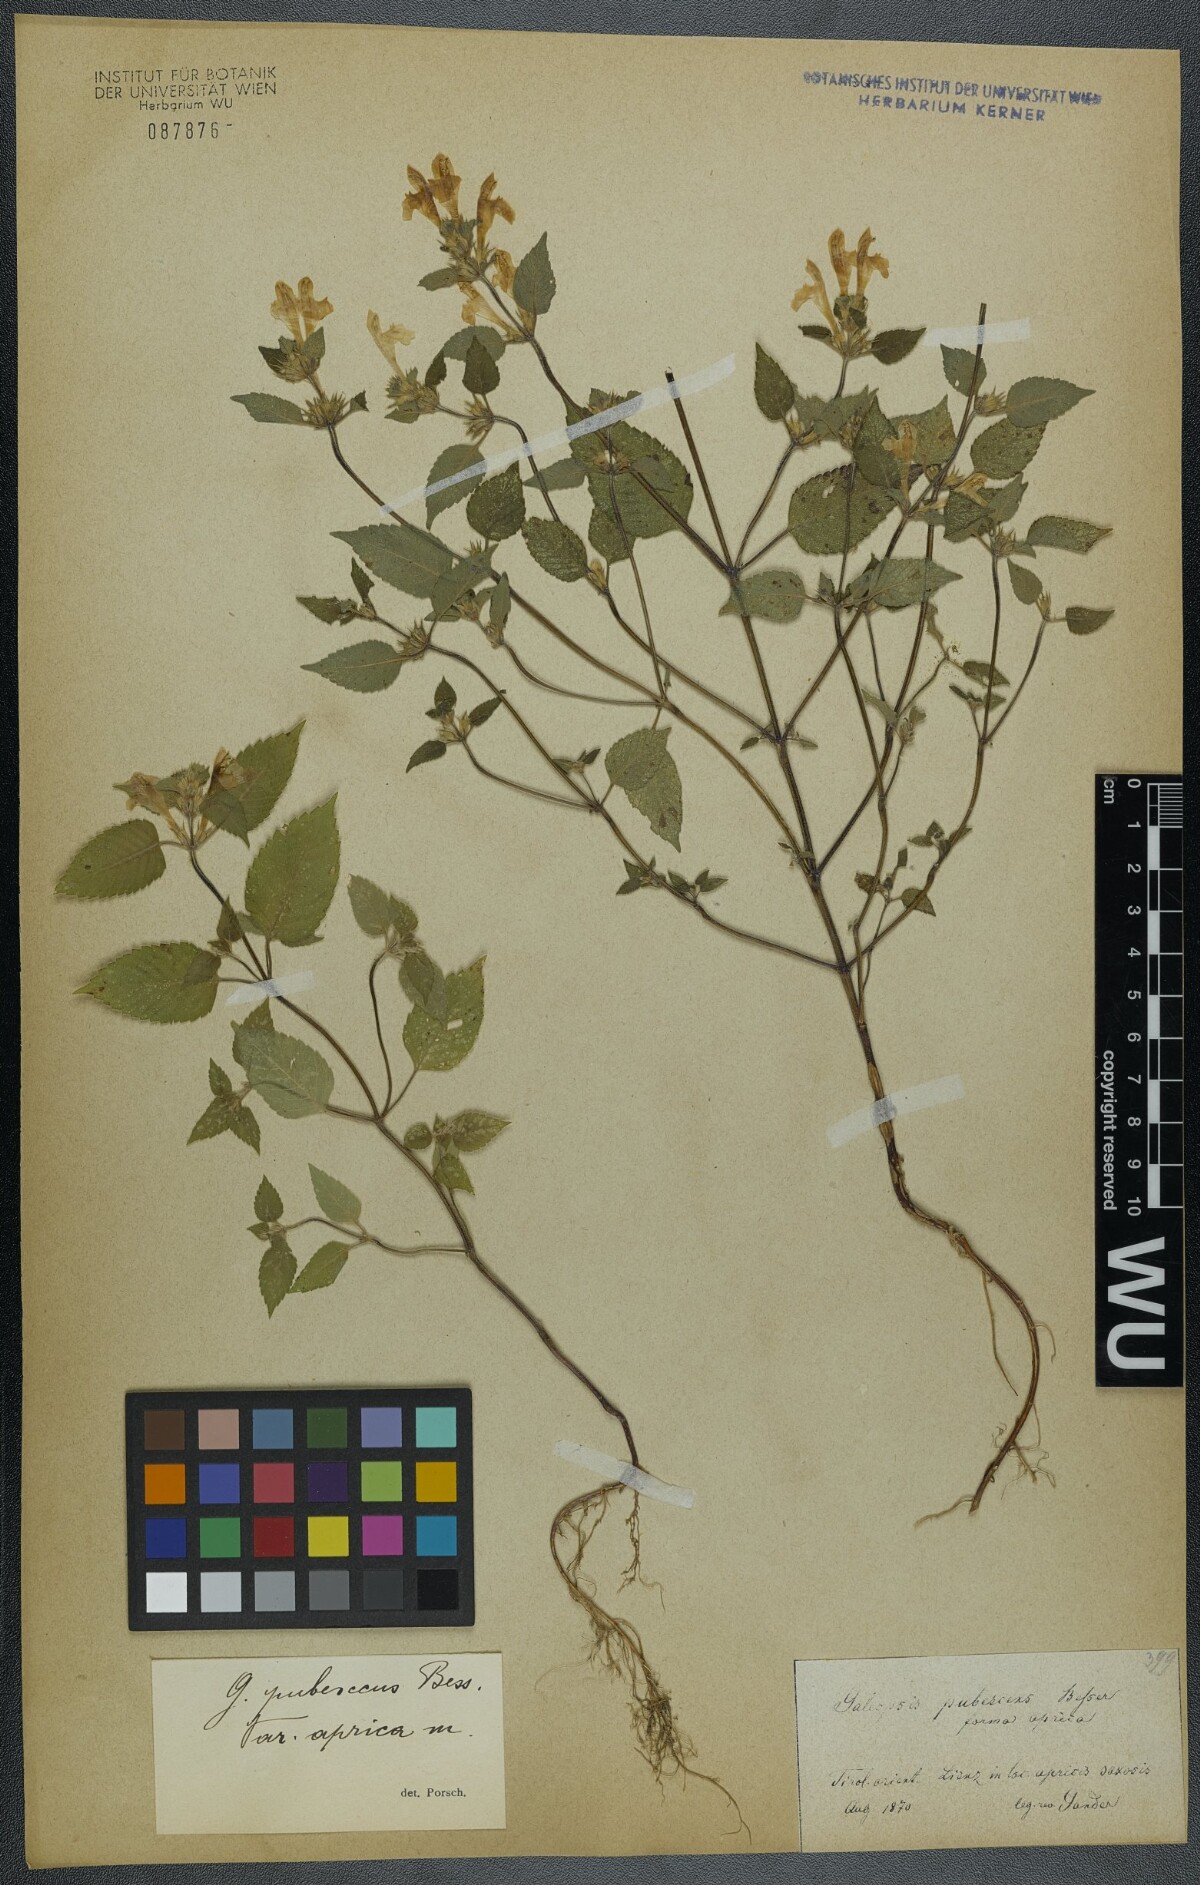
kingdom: Plantae
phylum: Tracheophyta
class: Magnoliopsida
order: Lamiales
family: Lamiaceae
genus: Galeopsis
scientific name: Galeopsis pubescens
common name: Downy hemp-nettle
